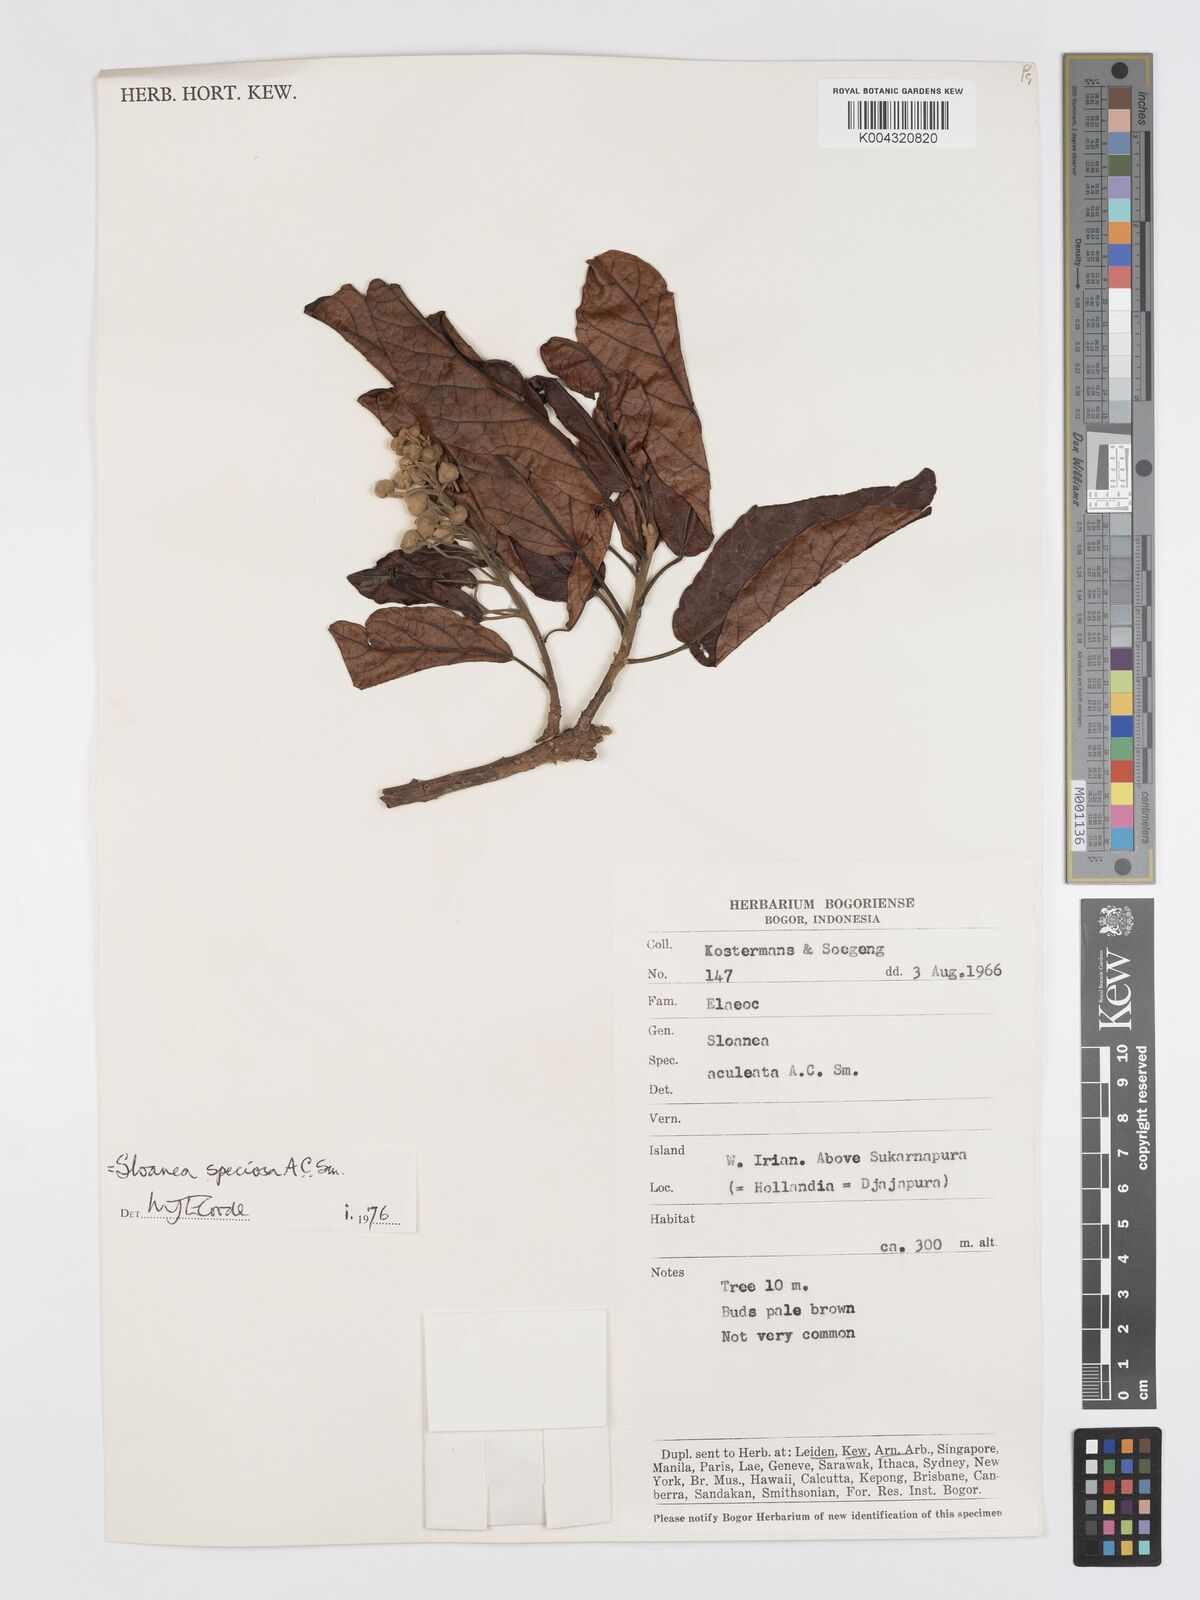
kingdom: Plantae
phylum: Tracheophyta
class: Magnoliopsida
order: Oxalidales
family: Elaeocarpaceae
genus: Sloanea
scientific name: Sloanea aculeata
